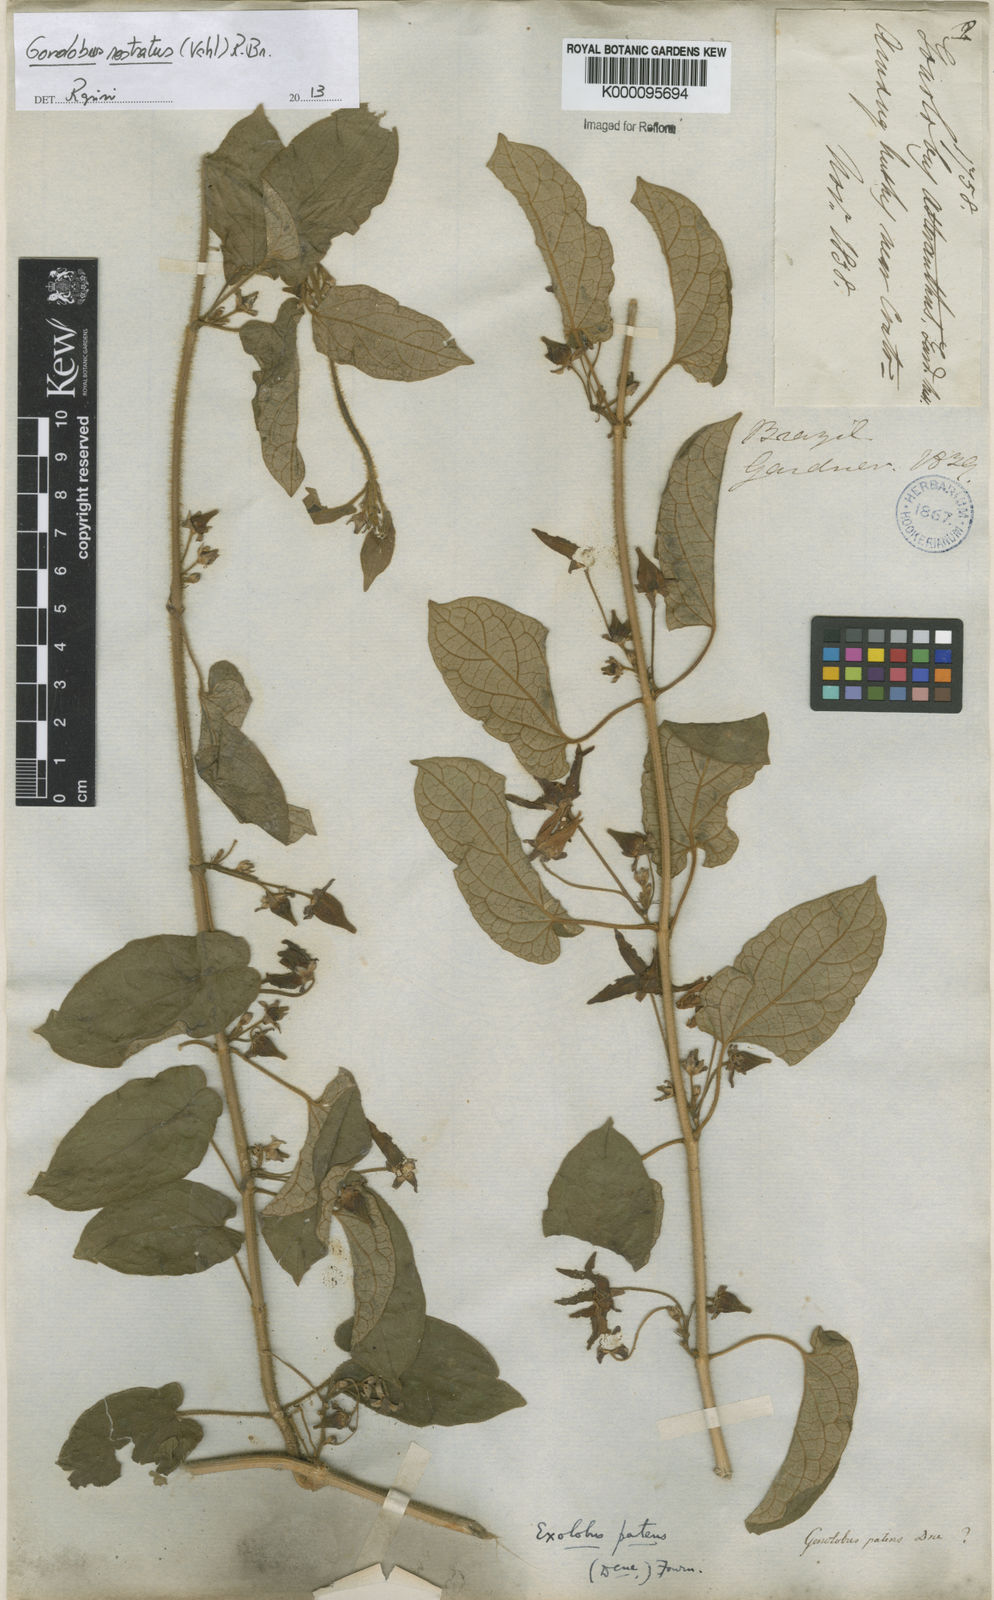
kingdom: Plantae
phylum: Tracheophyta
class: Magnoliopsida
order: Gentianales
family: Apocynaceae
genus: Gonolobus
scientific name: Gonolobus rostratus
